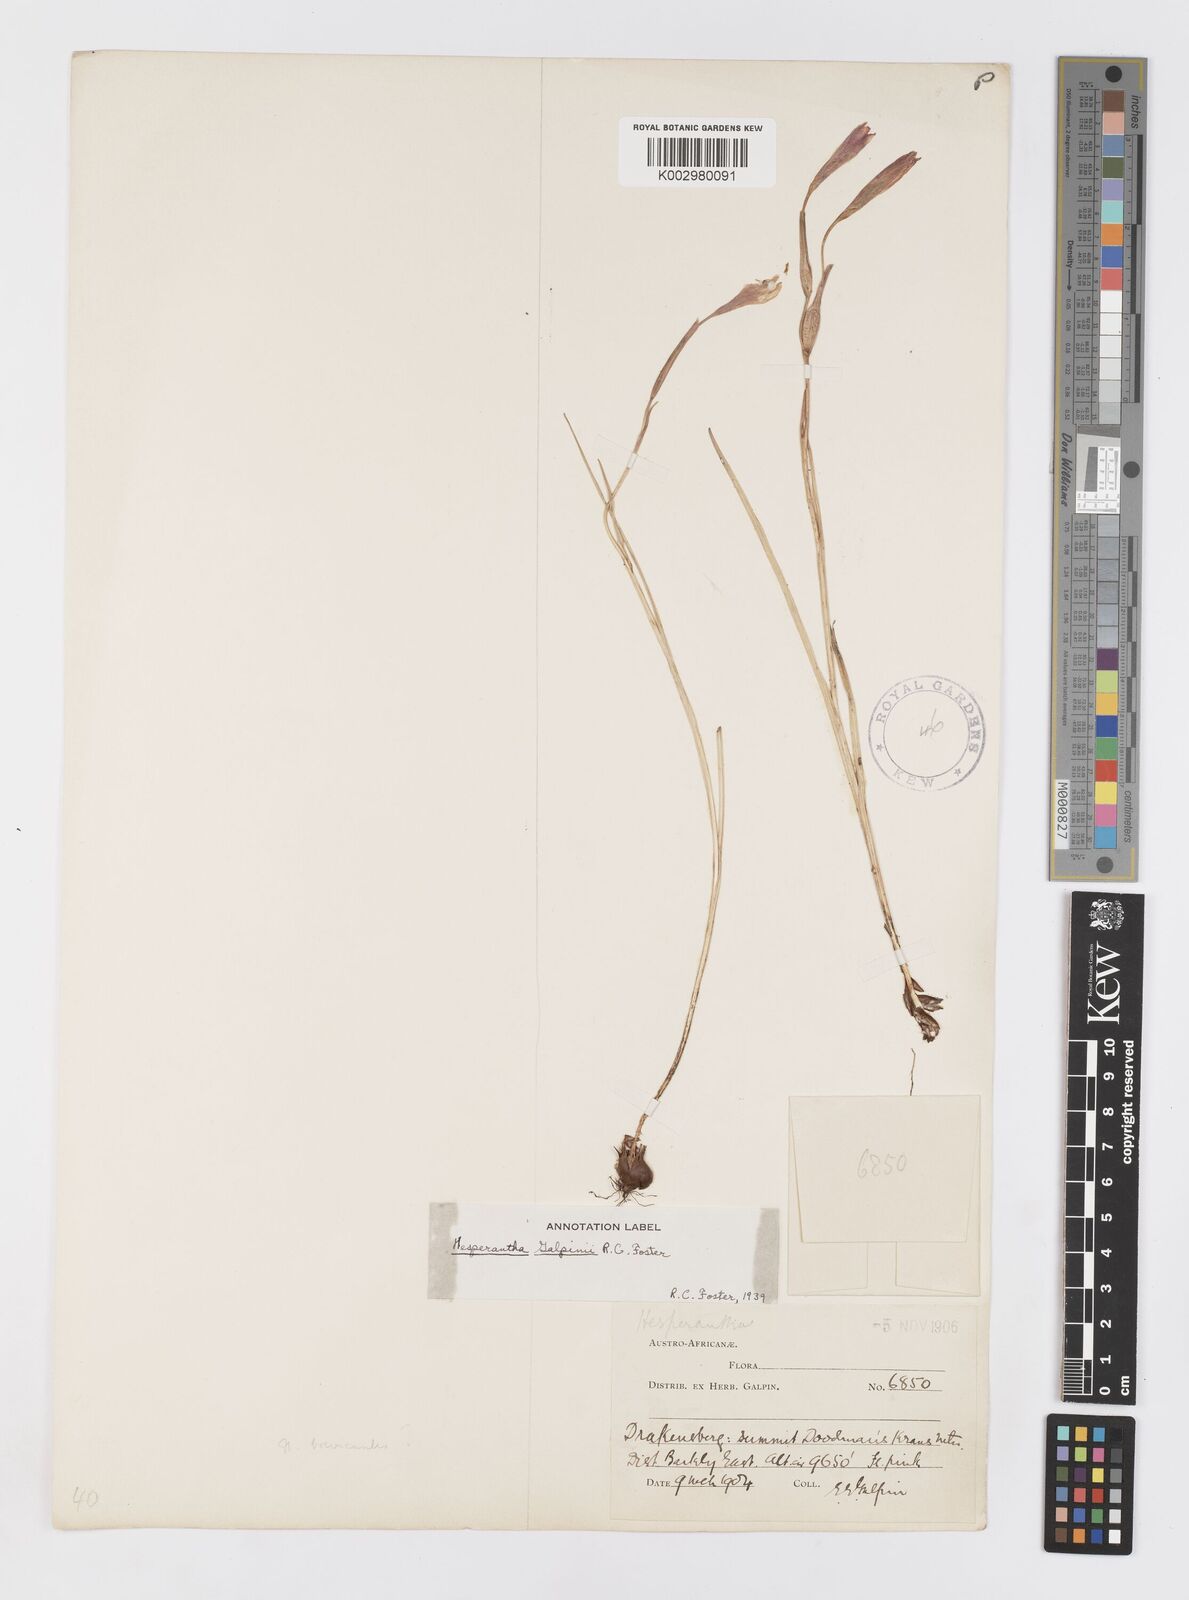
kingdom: Plantae
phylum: Tracheophyta
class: Liliopsida
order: Asparagales
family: Iridaceae
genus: Hesperantha
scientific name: Hesperantha grandiflora
